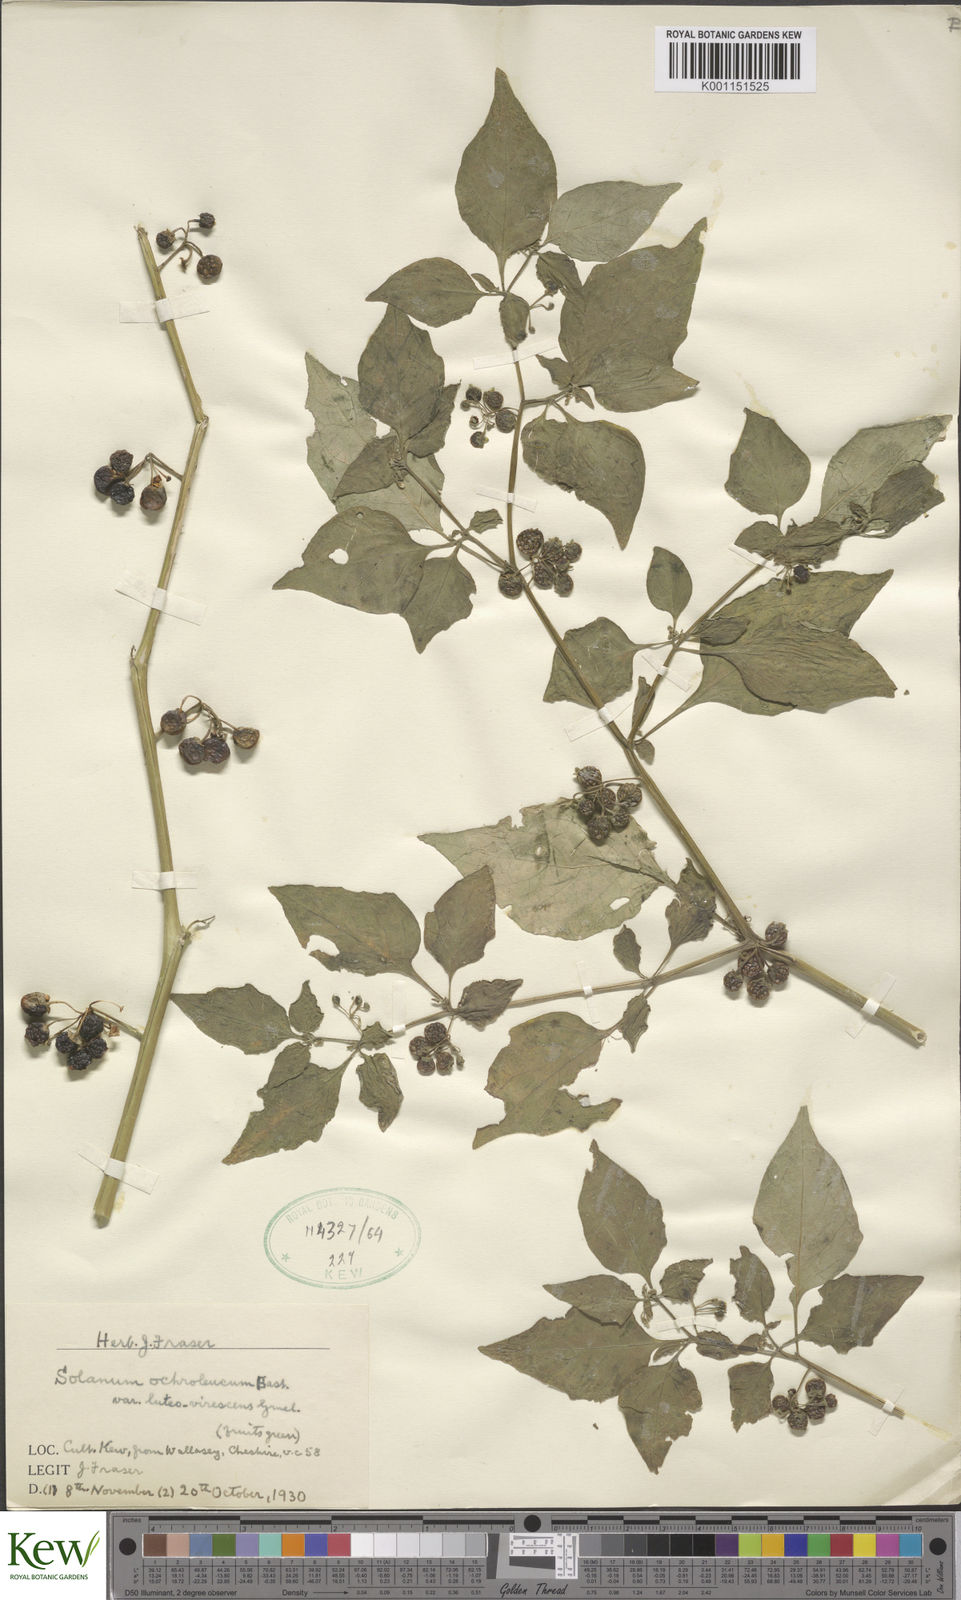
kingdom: Plantae
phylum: Tracheophyta
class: Magnoliopsida
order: Solanales
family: Solanaceae
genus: Solanum
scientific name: Solanum nigrum
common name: Black nightshade
